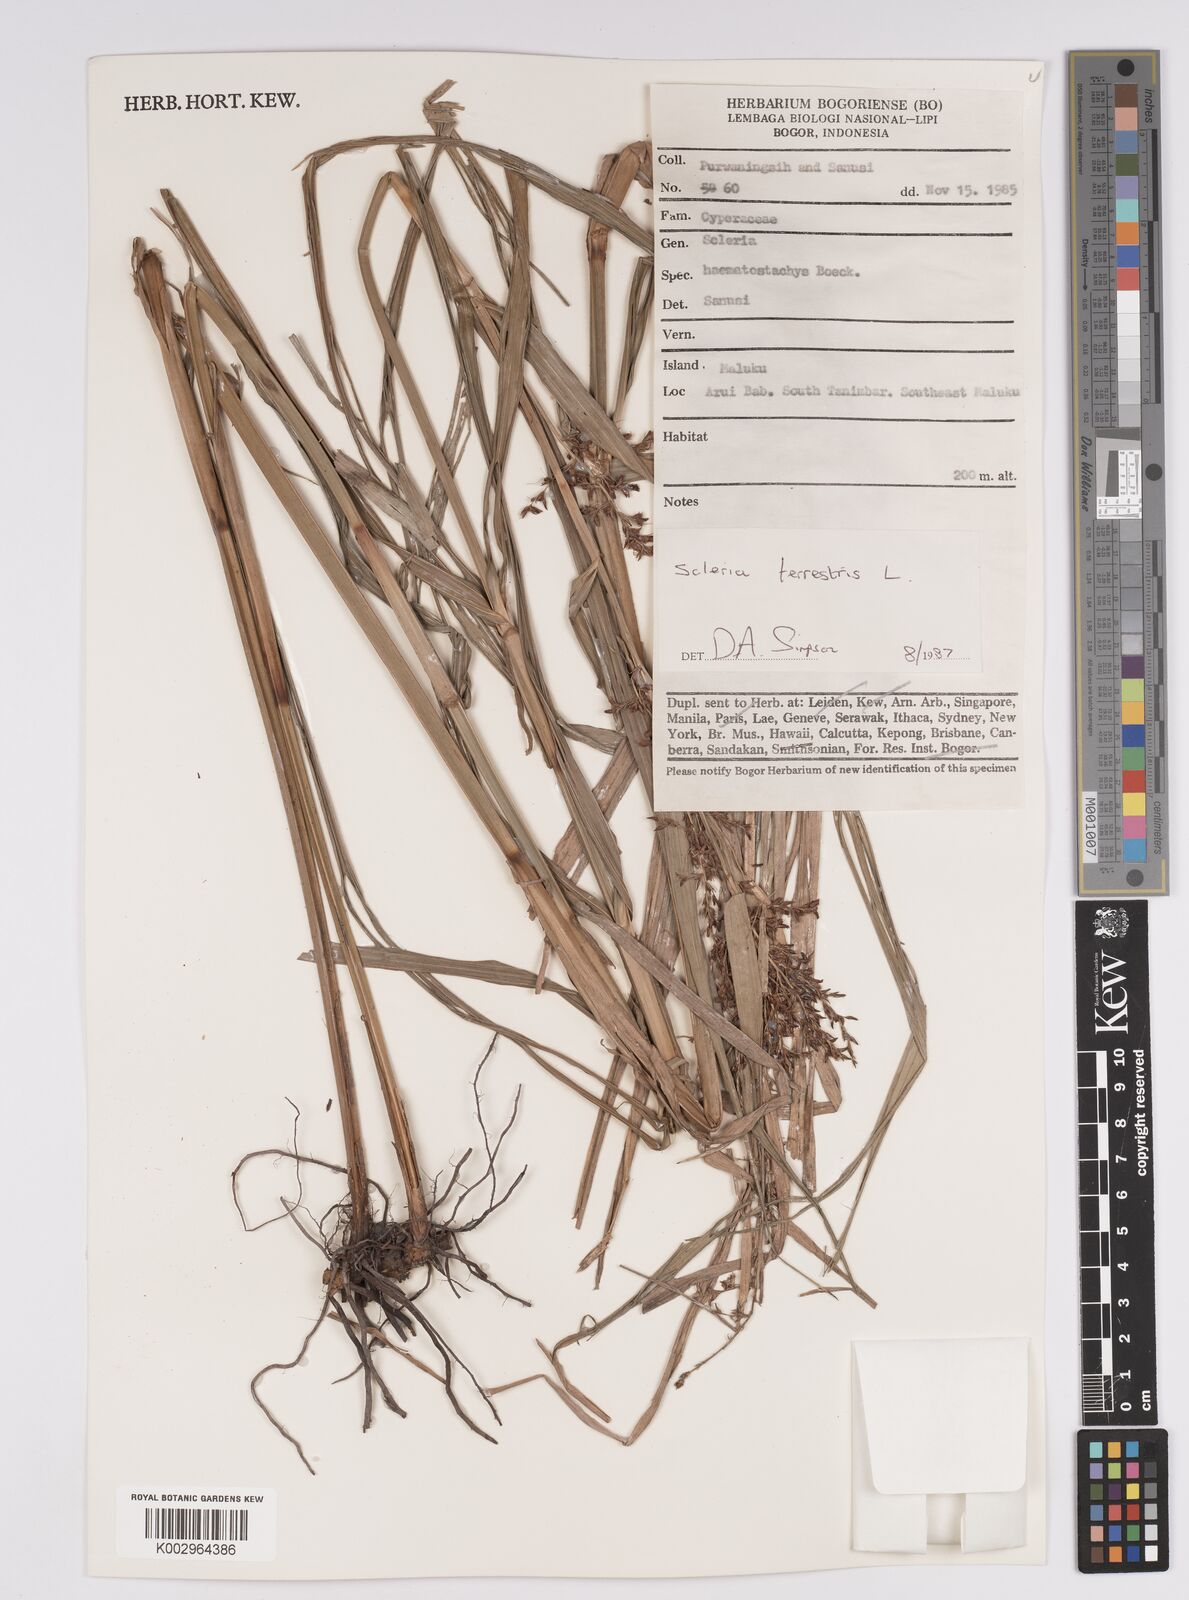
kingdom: Plantae
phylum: Tracheophyta
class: Liliopsida
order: Poales
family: Cyperaceae
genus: Scleria
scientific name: Scleria terrestris
